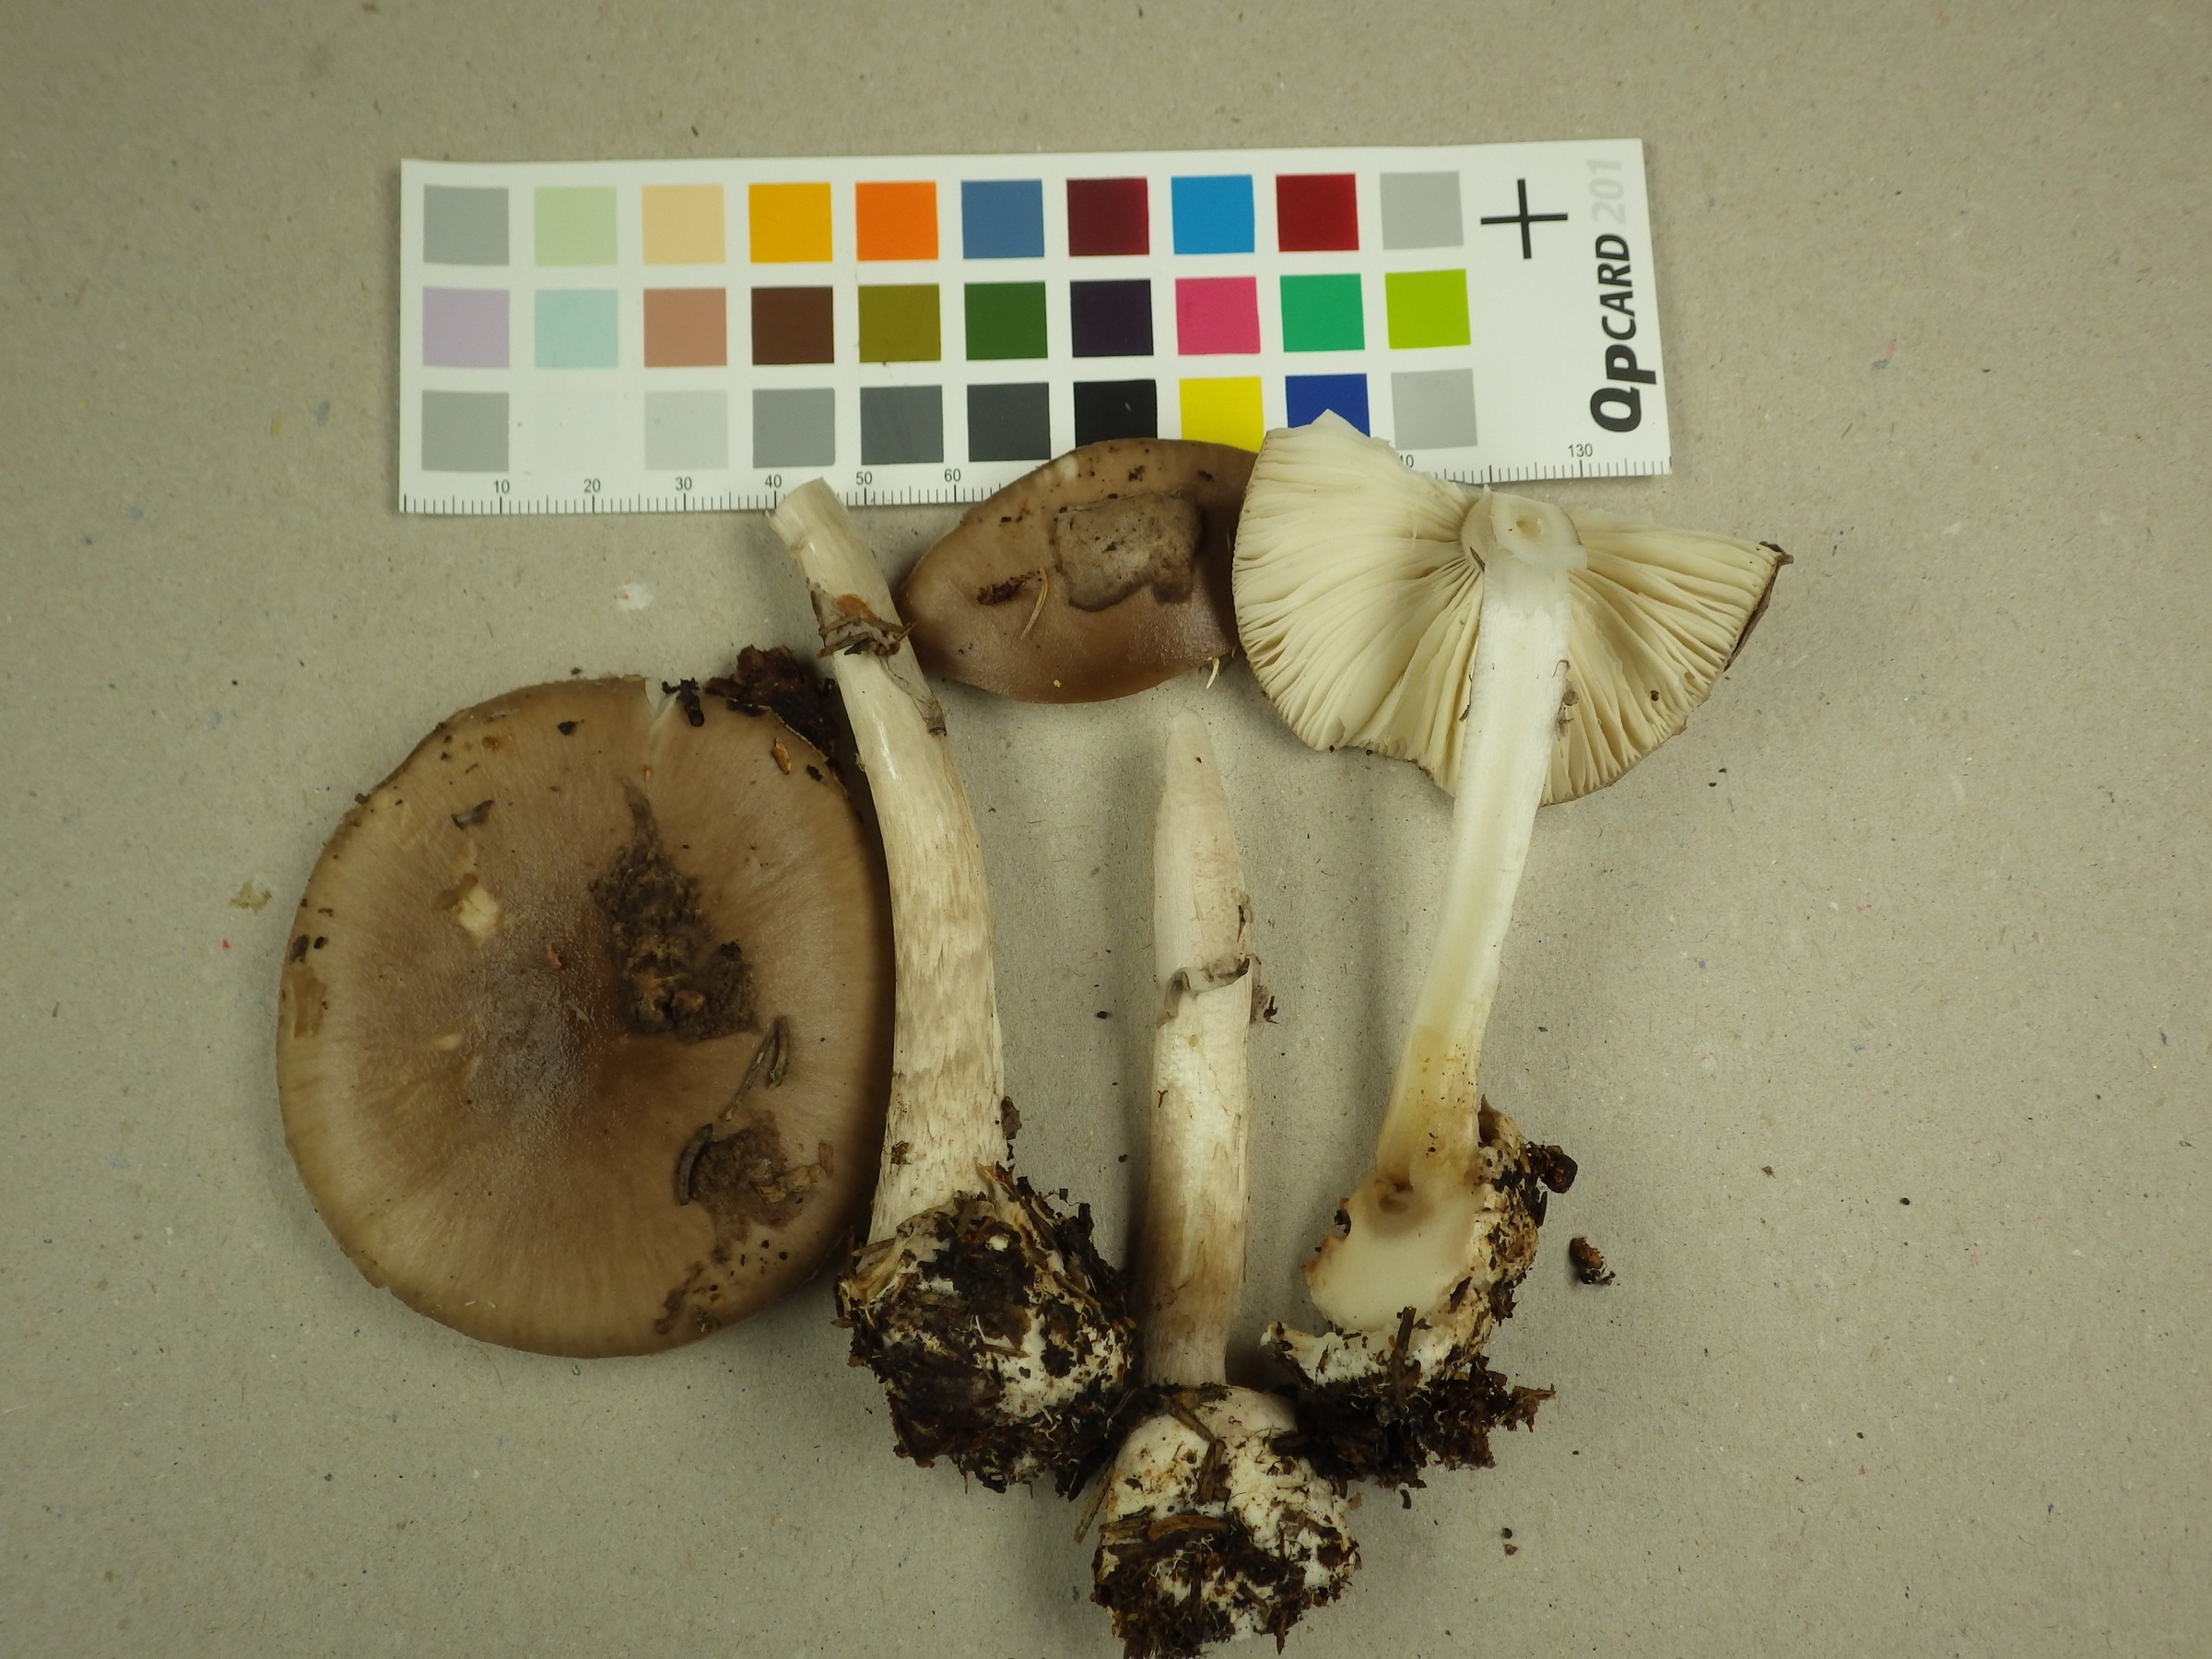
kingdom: Fungi
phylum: Basidiomycota
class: Agaricomycetes
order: Agaricales
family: Amanitaceae
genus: Amanita
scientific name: Amanita porphyria
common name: Grey veiled amanita
